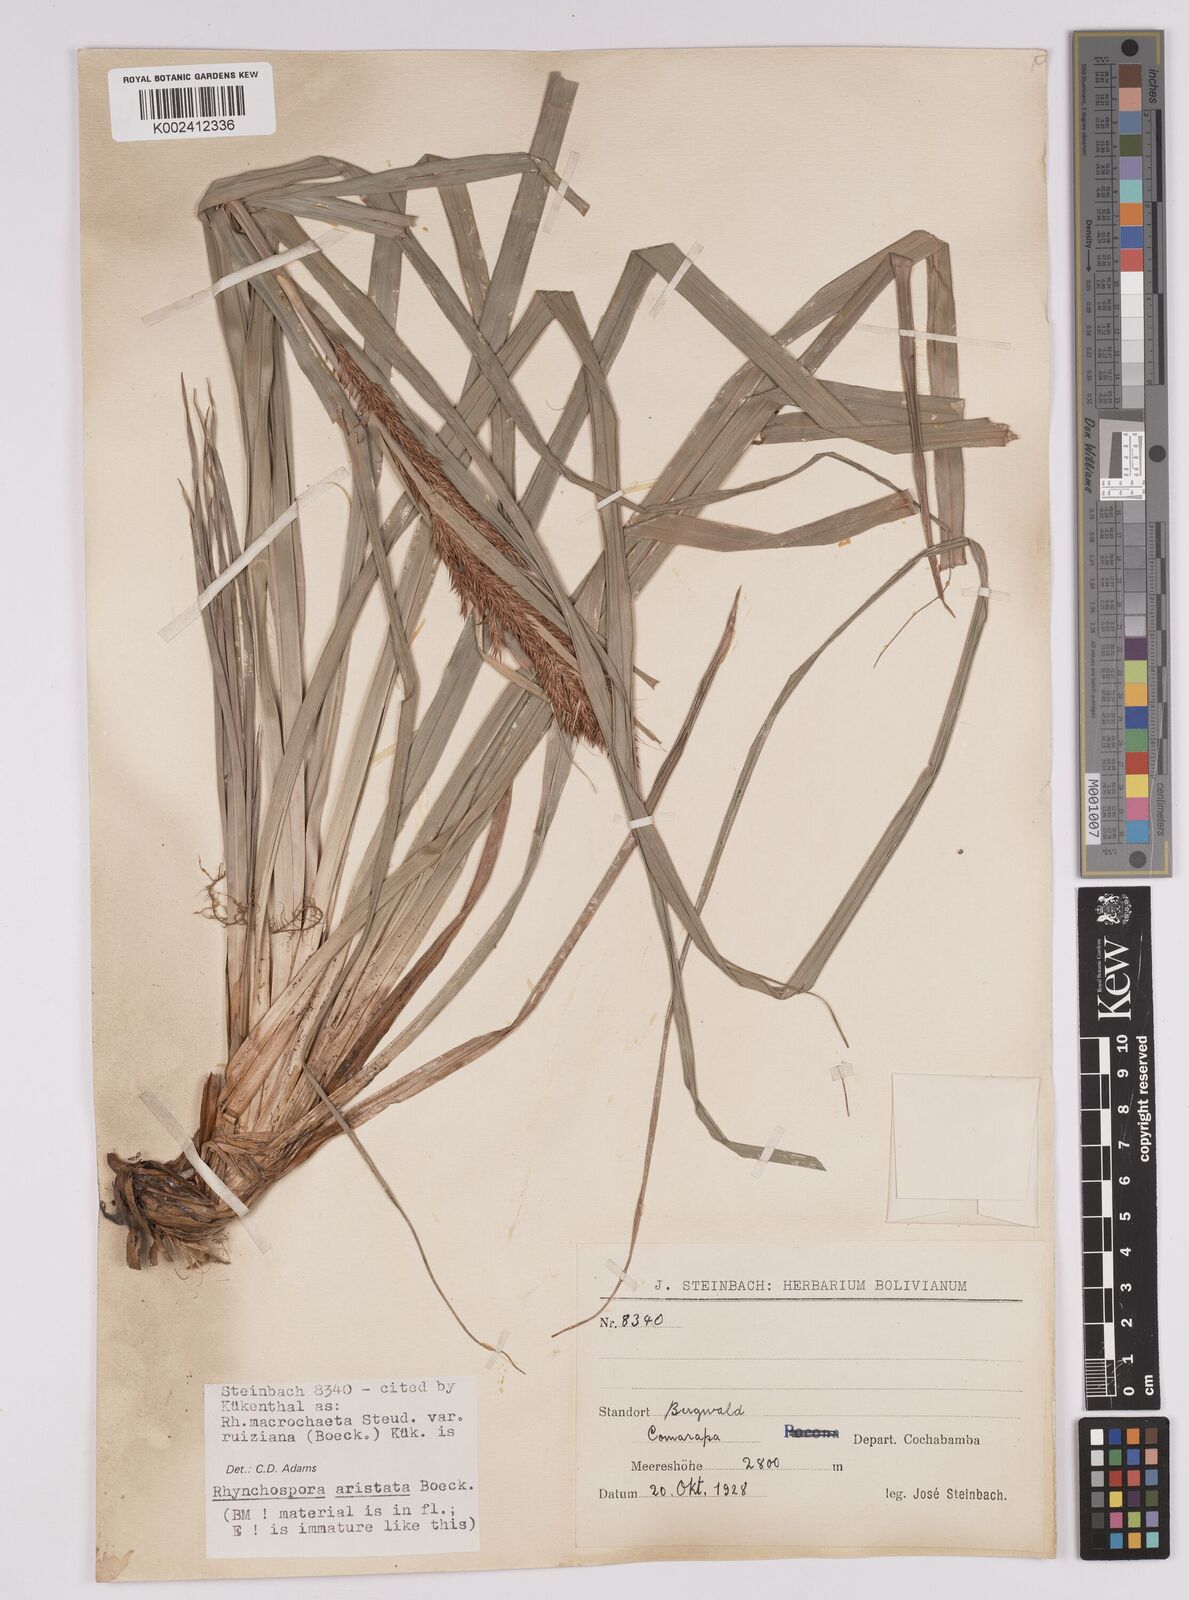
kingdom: Plantae
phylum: Tracheophyta
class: Liliopsida
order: Poales
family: Cyperaceae
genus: Rhynchospora
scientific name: Rhynchospora aristata
